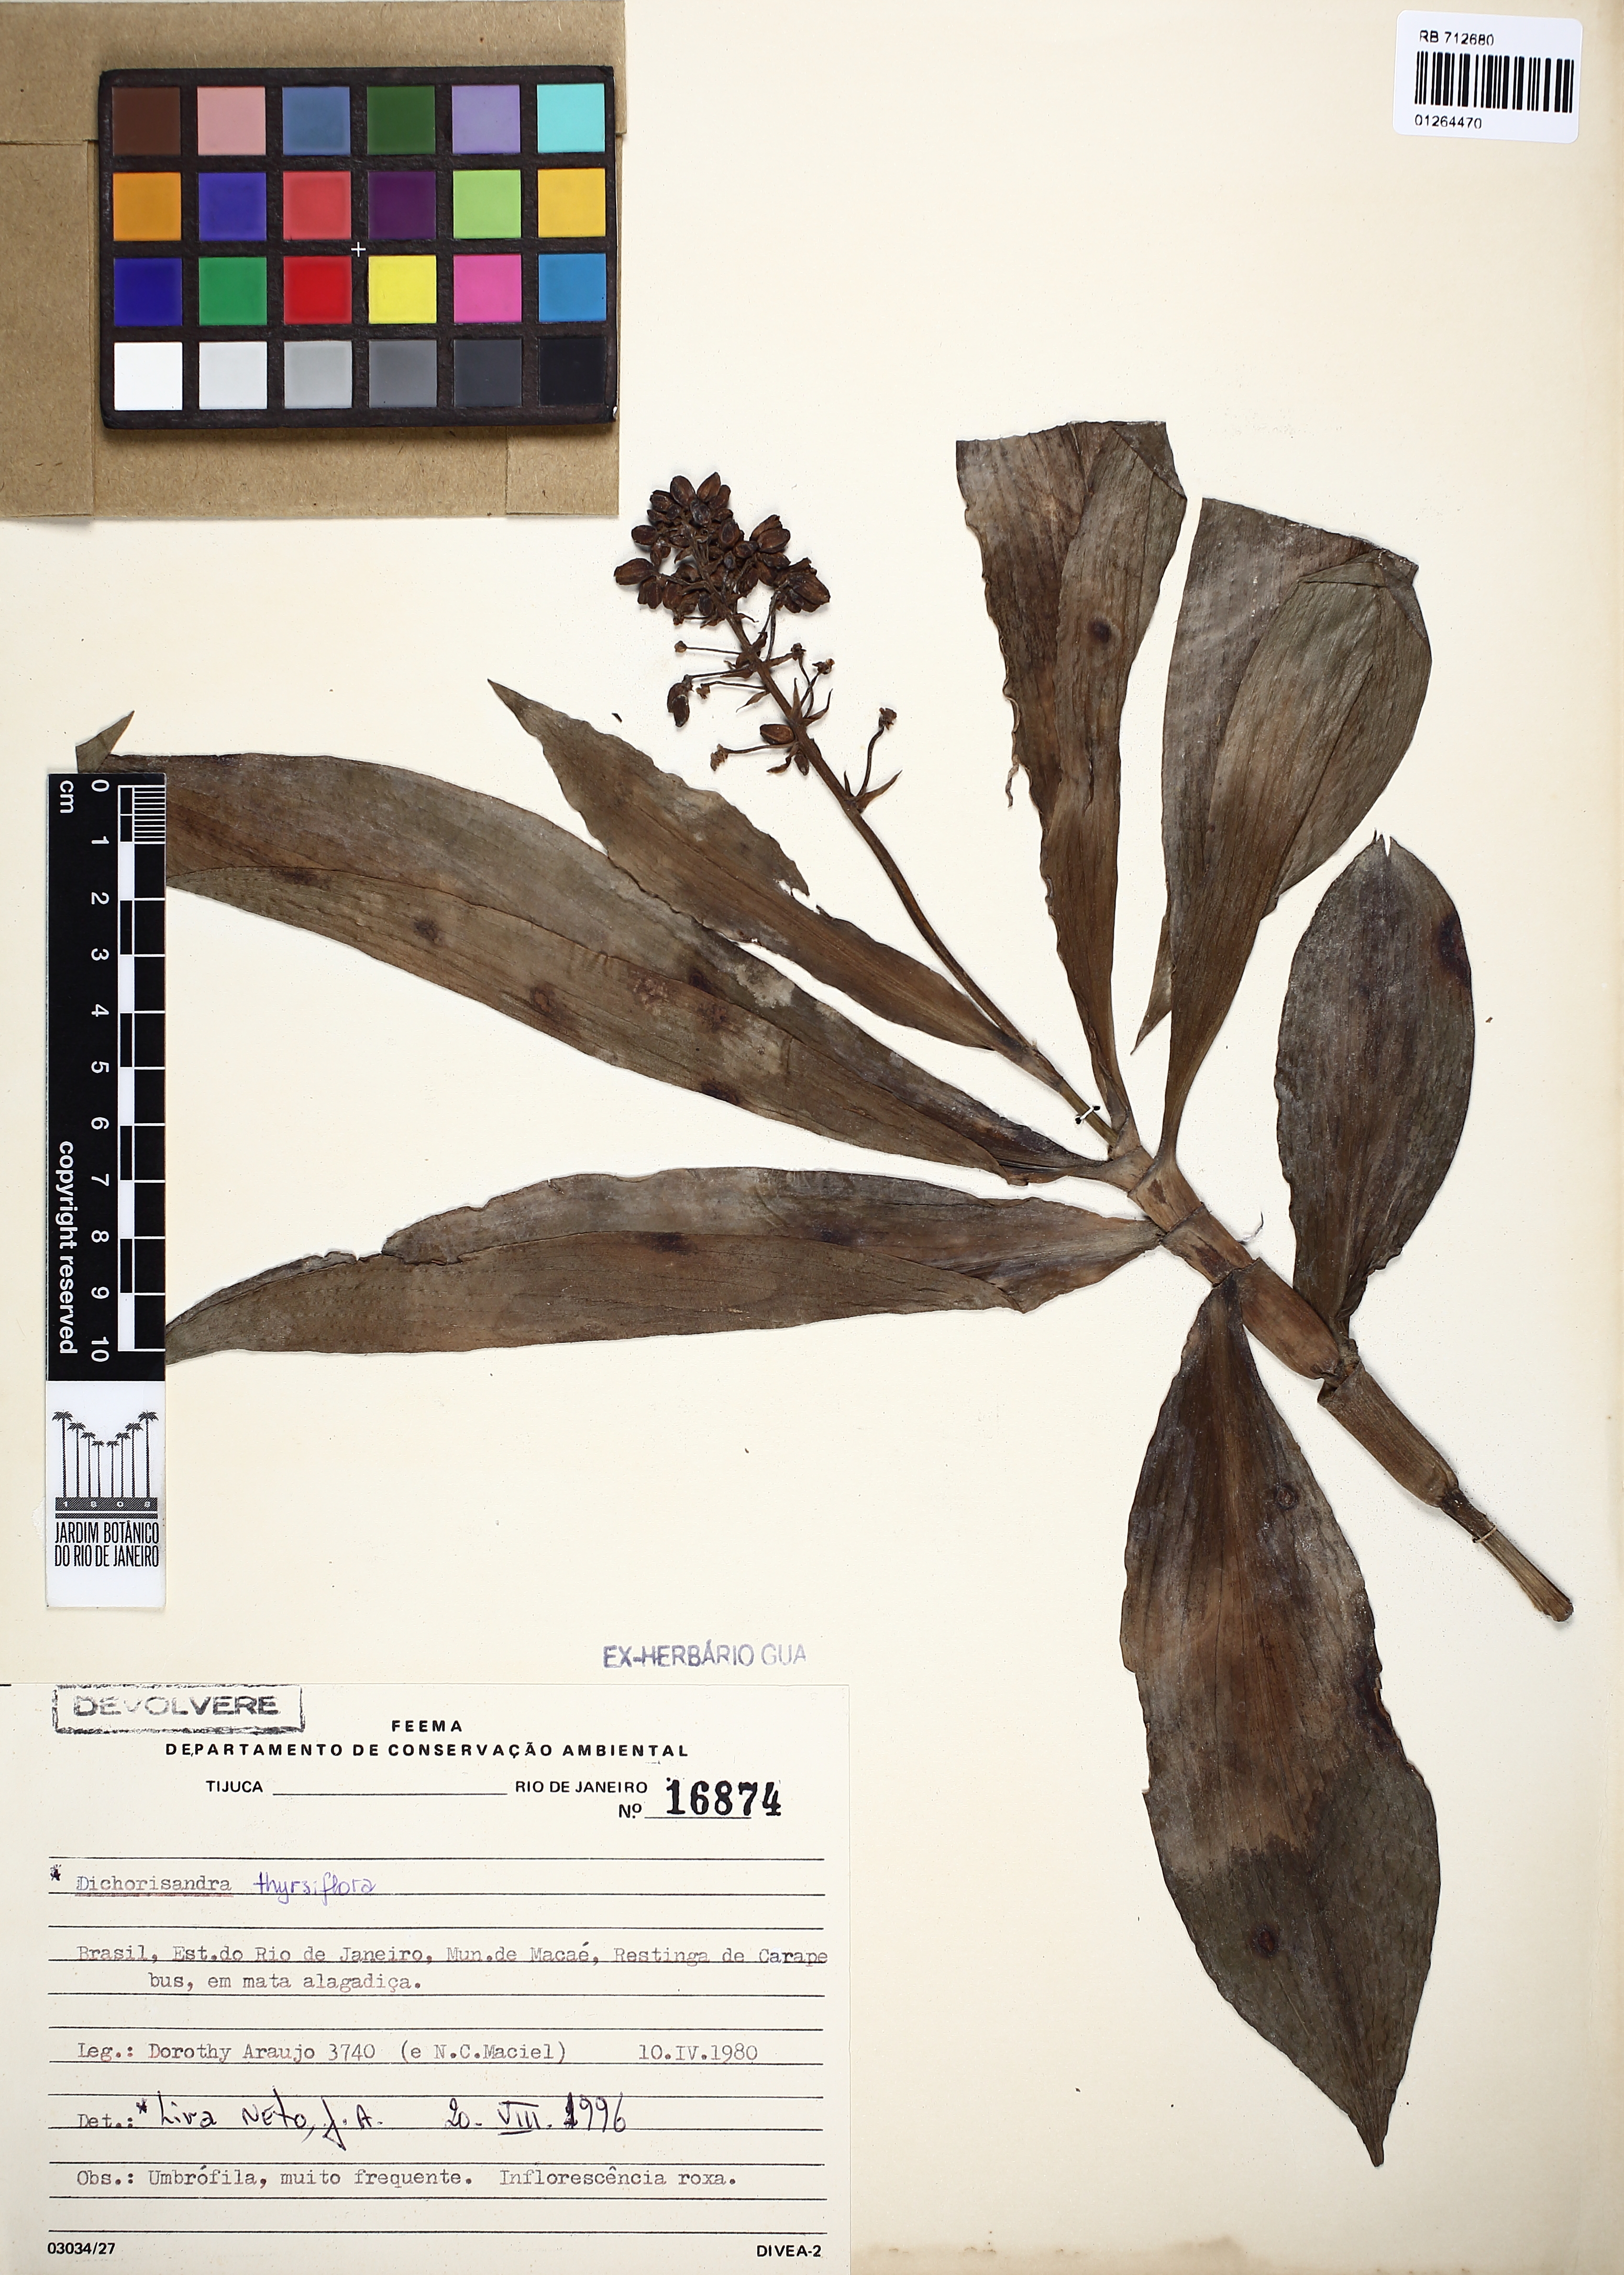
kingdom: Plantae
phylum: Tracheophyta
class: Liliopsida
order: Commelinales
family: Commelinaceae
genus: Dichorisandra
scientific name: Dichorisandra thyrsiflora
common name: Blue-ginger
